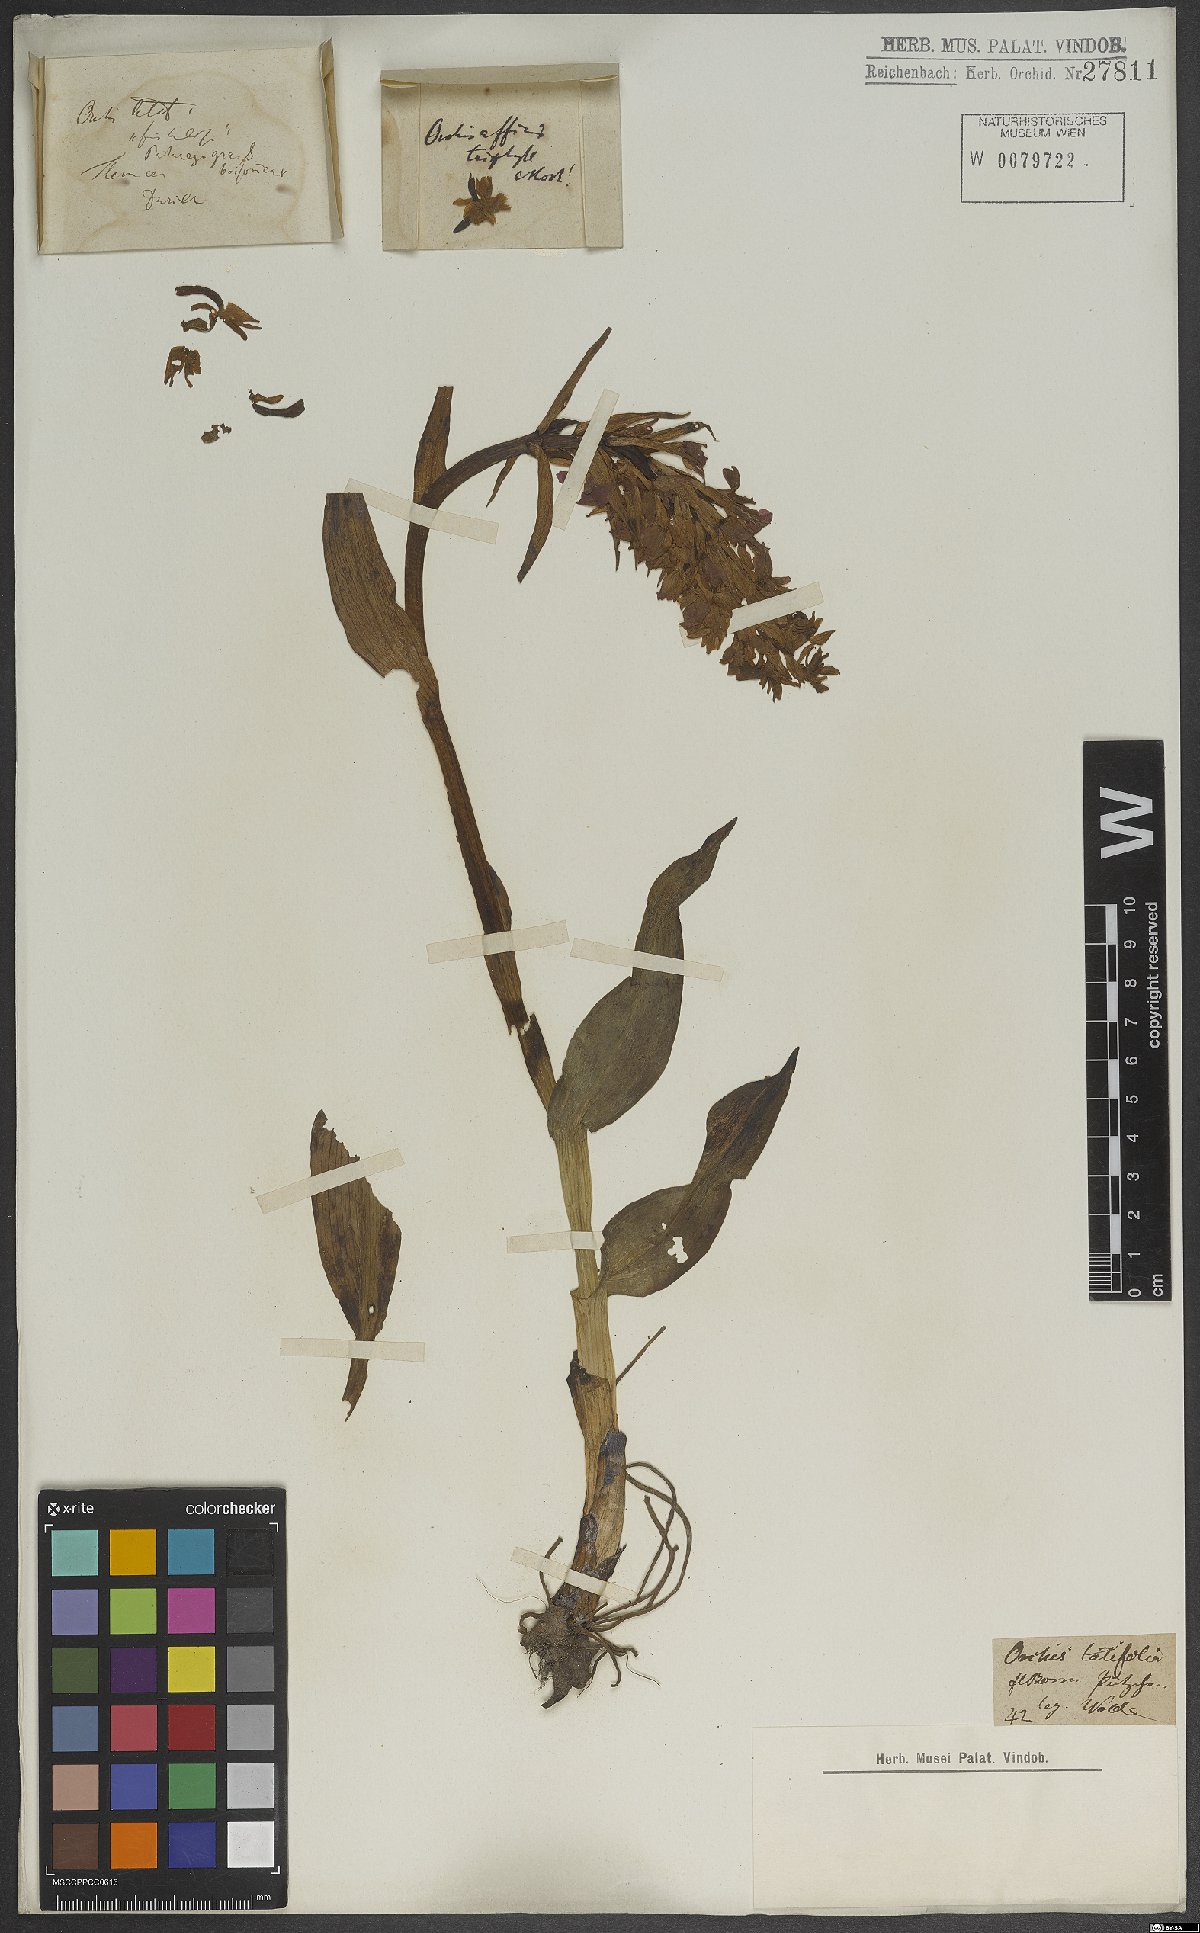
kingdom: Plantae
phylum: Tracheophyta
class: Liliopsida
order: Asparagales
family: Orchidaceae
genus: Dactylorhiza
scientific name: Dactylorhiza majalis
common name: Marsh orchid
